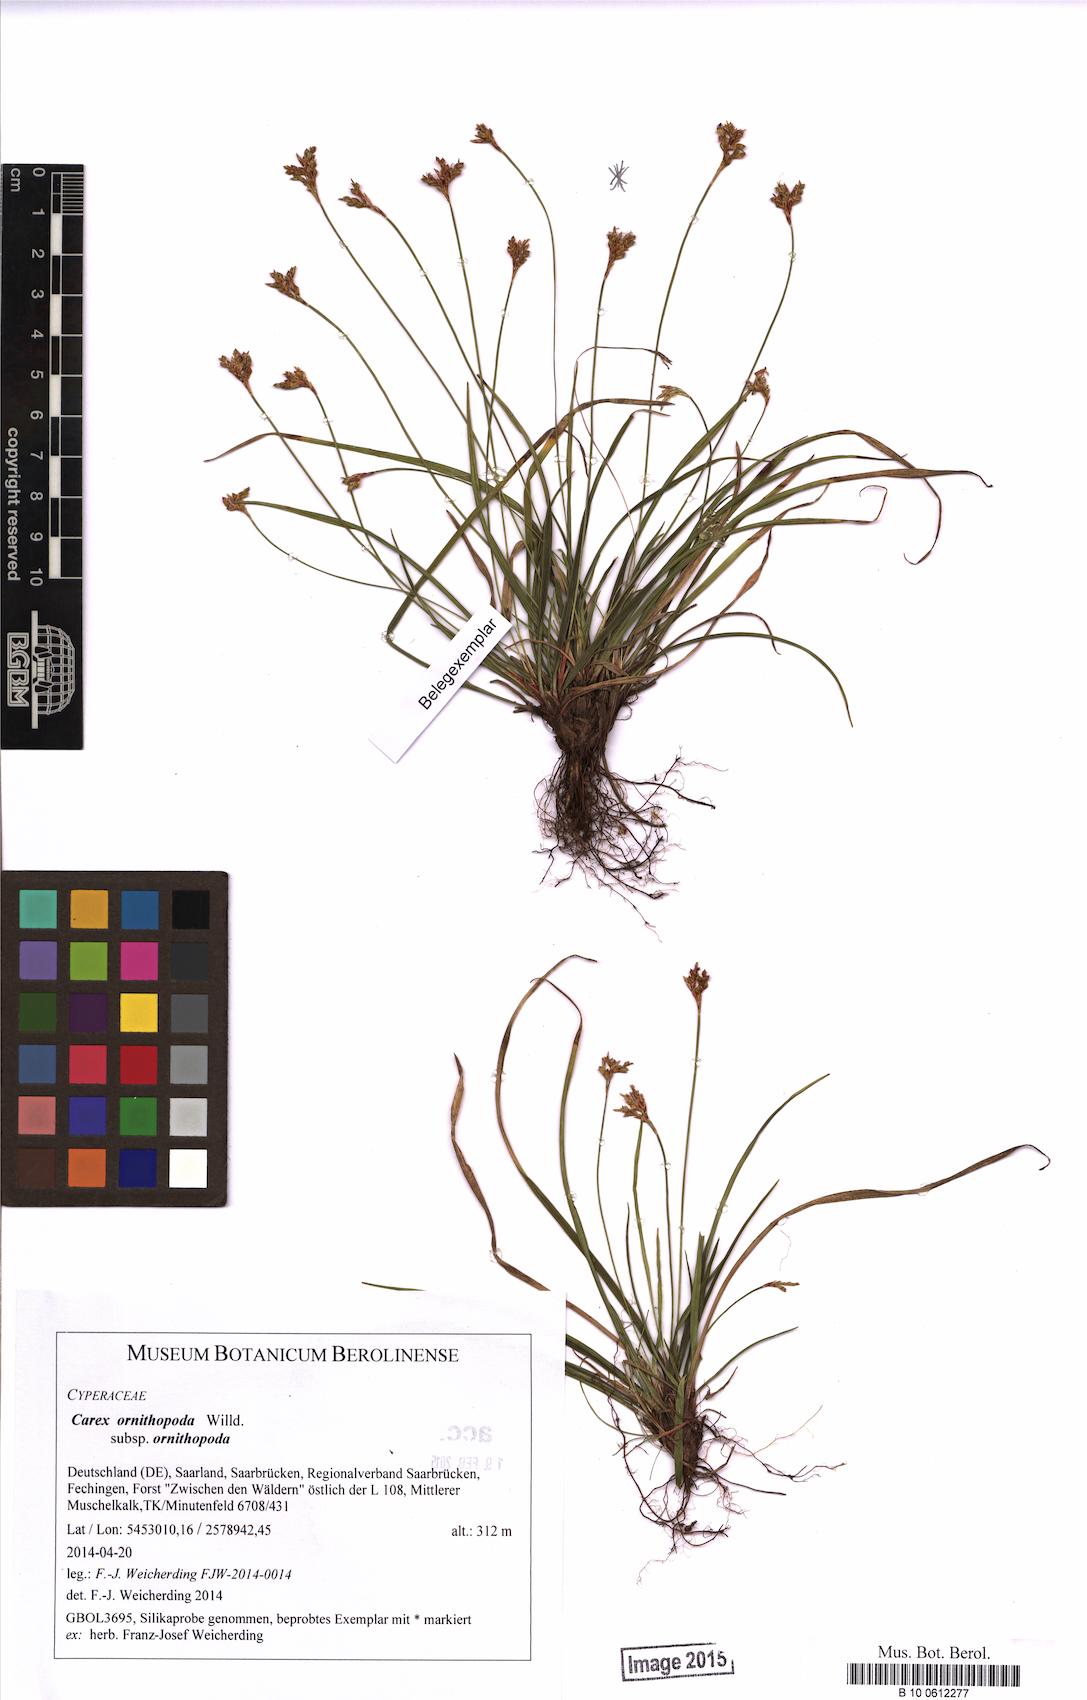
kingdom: Plantae
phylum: Tracheophyta
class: Liliopsida
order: Poales
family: Cyperaceae
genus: Carex
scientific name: Carex ornithopoda
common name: Bird's-foot sedge
